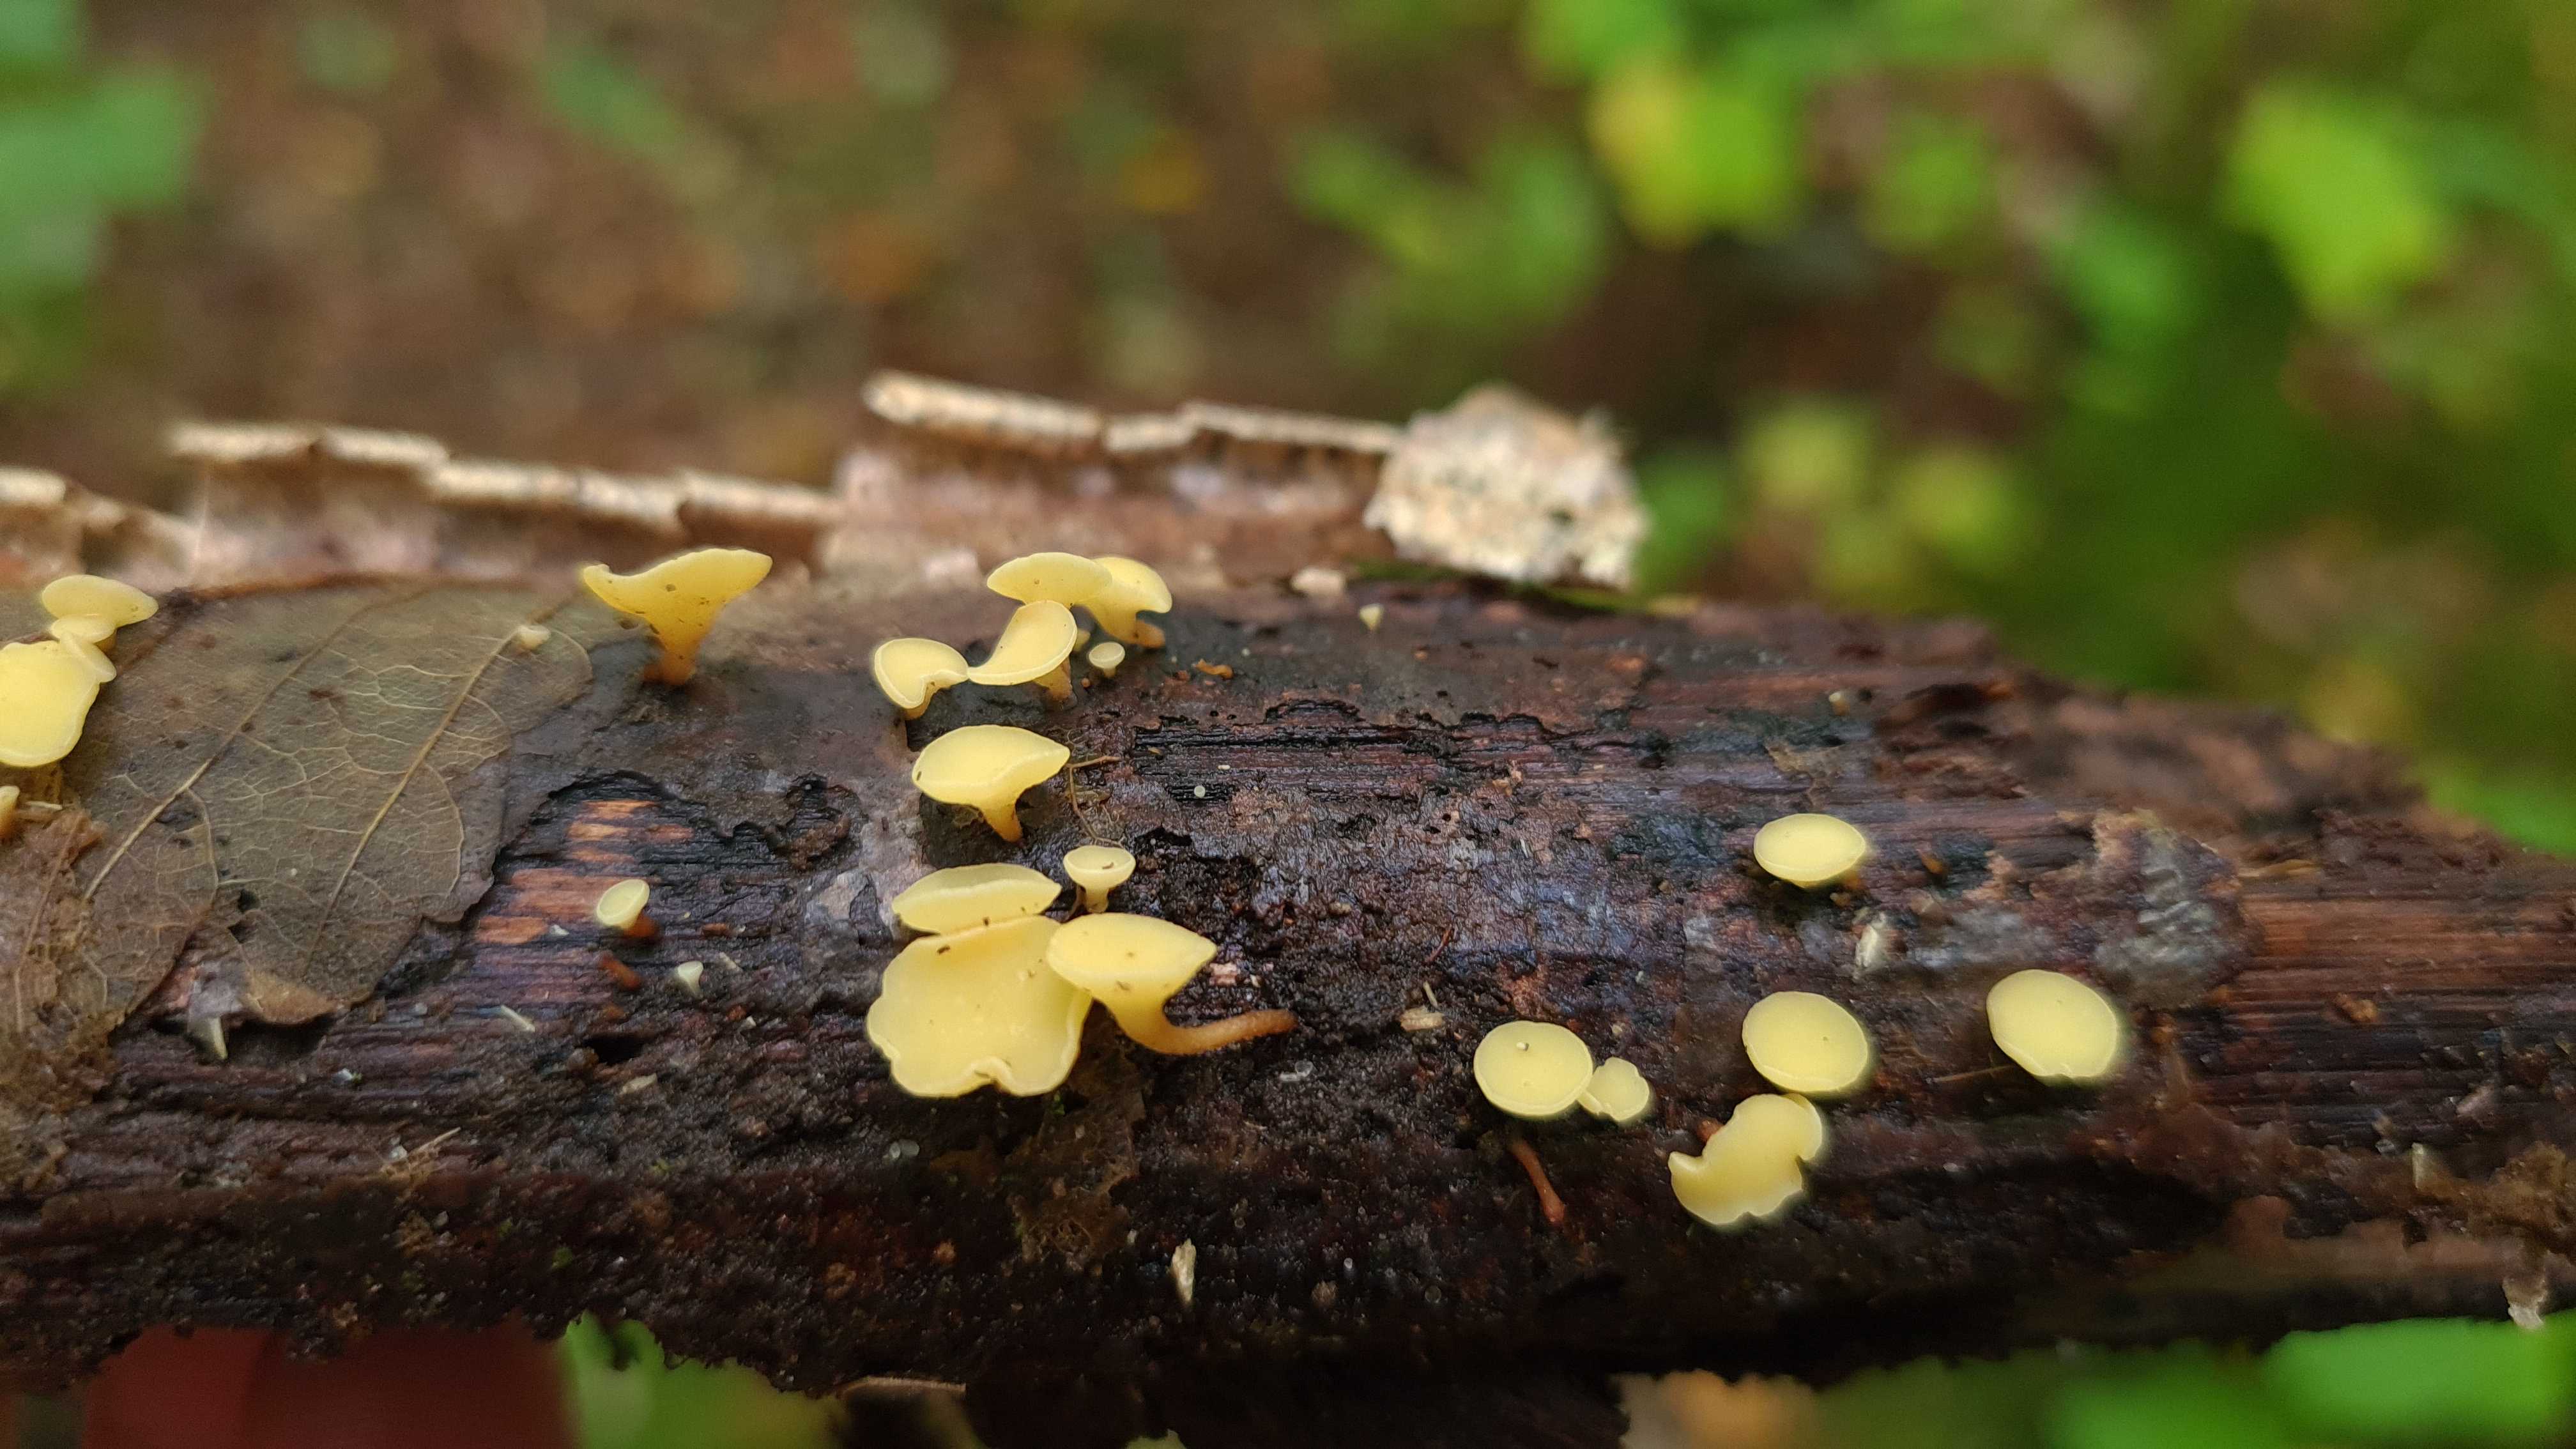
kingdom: Fungi
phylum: Ascomycota
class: Leotiomycetes
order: Helotiales
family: Helotiaceae
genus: Hymenoscyphus
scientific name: Hymenoscyphus serotinus
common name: krumsporet stilkskive
